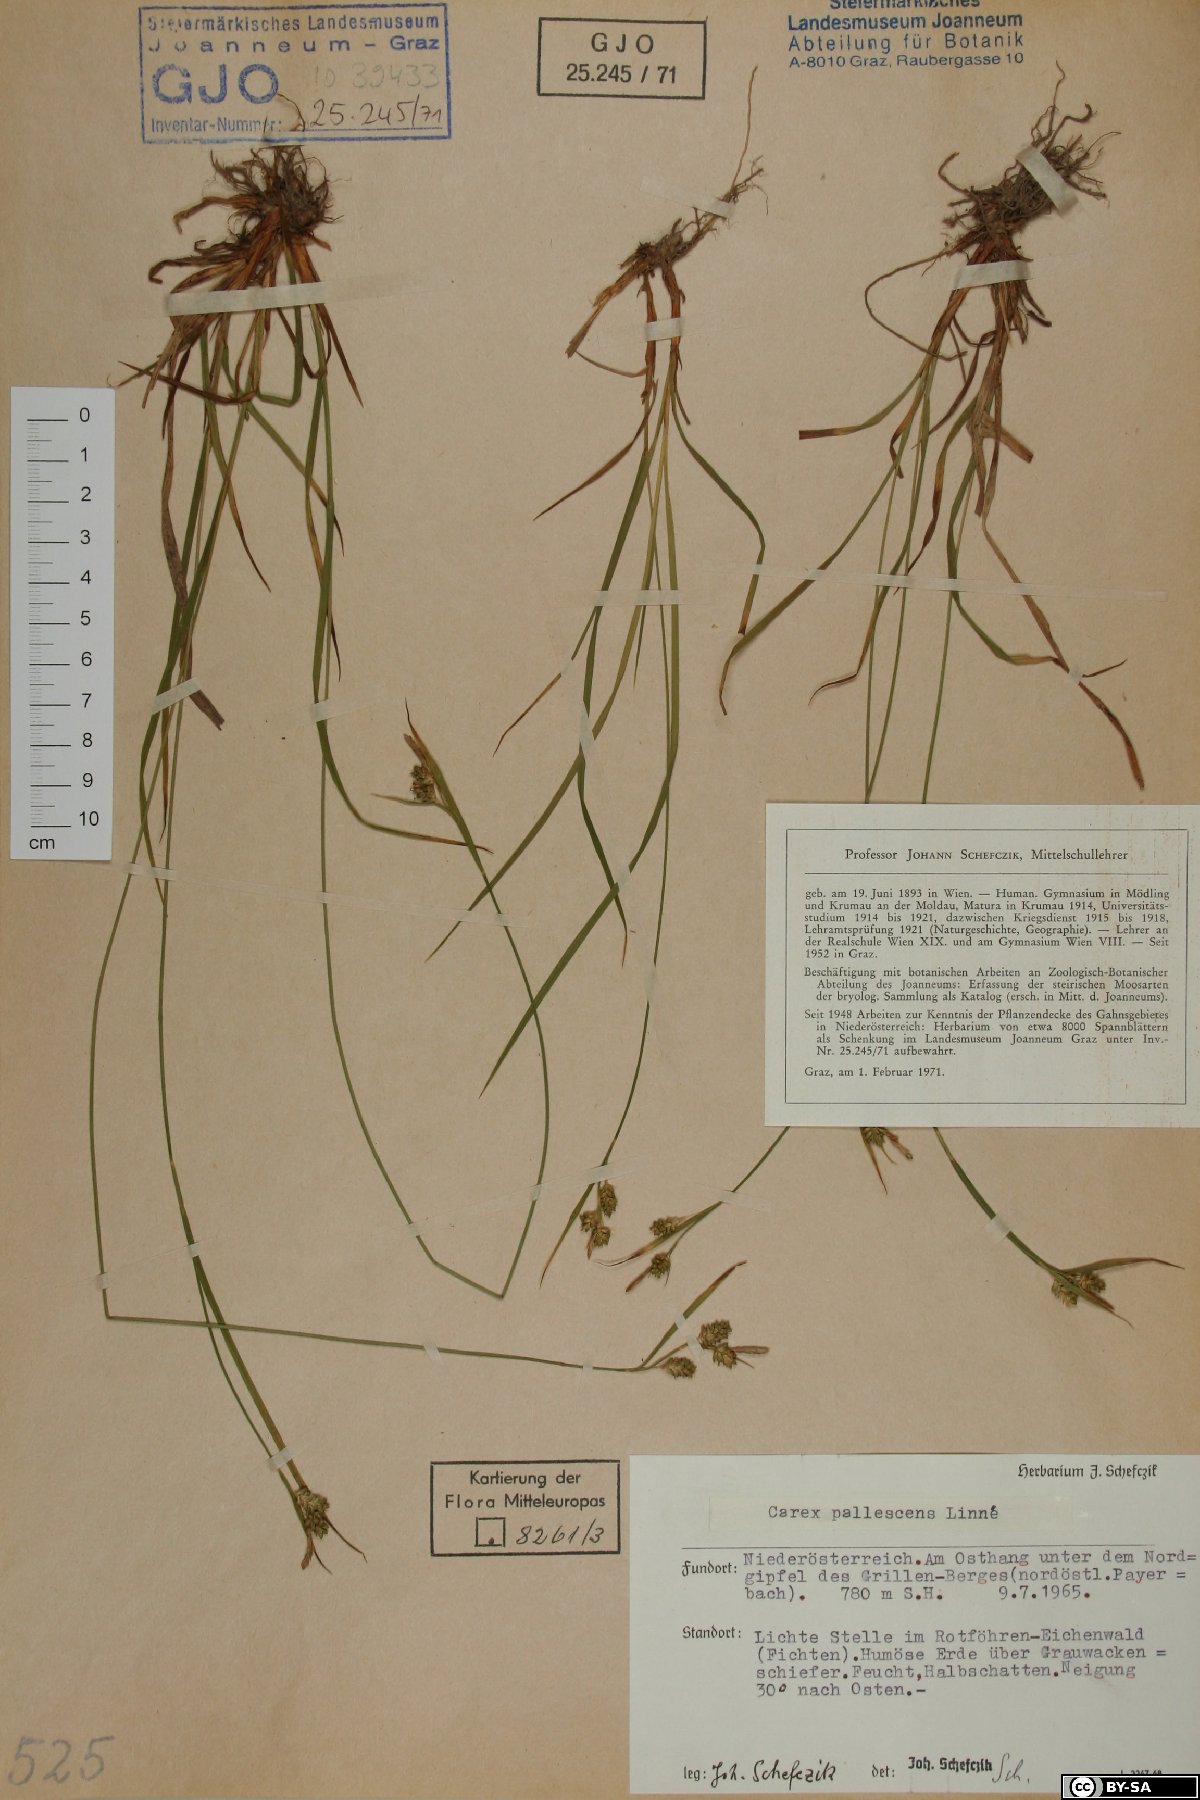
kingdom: Plantae
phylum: Tracheophyta
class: Liliopsida
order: Poales
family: Cyperaceae
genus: Carex
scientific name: Carex pallescens
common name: Pale sedge
